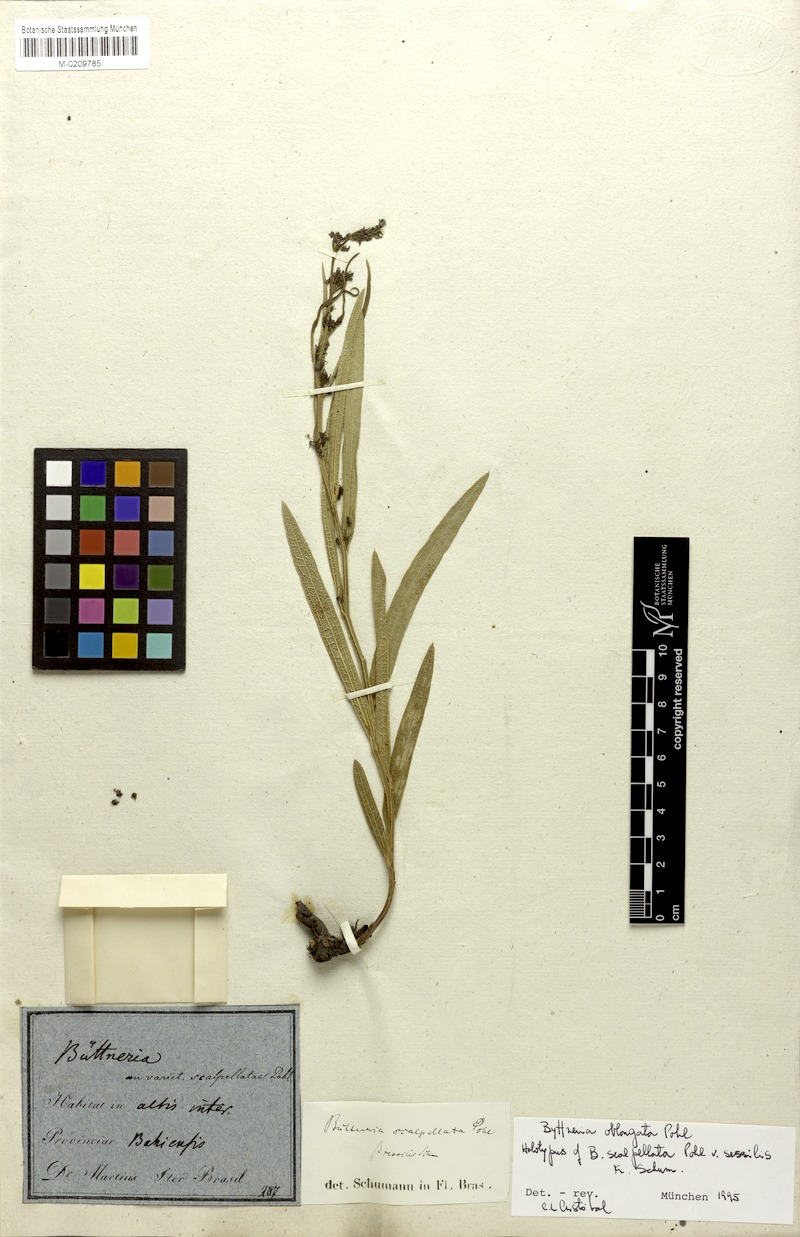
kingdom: Plantae
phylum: Tracheophyta
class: Magnoliopsida
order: Malvales
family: Malvaceae
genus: Byttneria
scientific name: Byttneria oblongata
